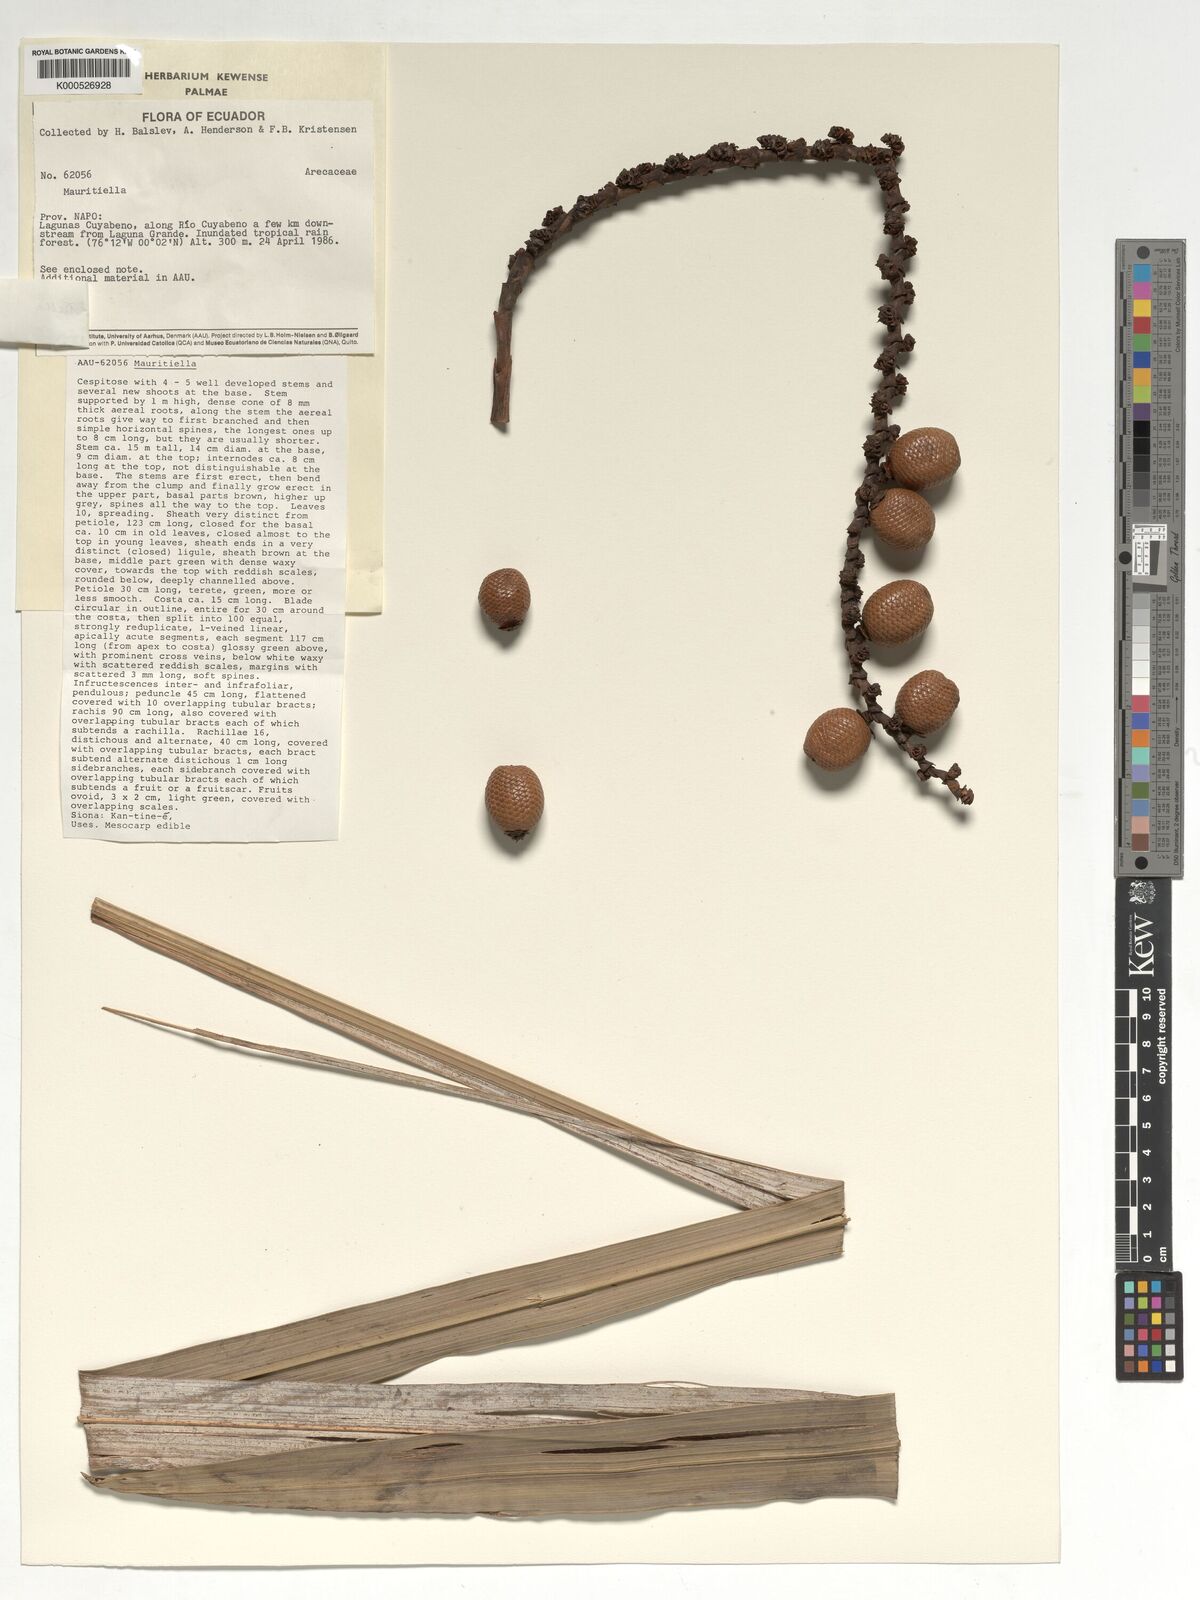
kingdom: Plantae
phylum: Tracheophyta
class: Liliopsida
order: Arecales
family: Arecaceae
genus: Mauritiella
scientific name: Mauritiella
